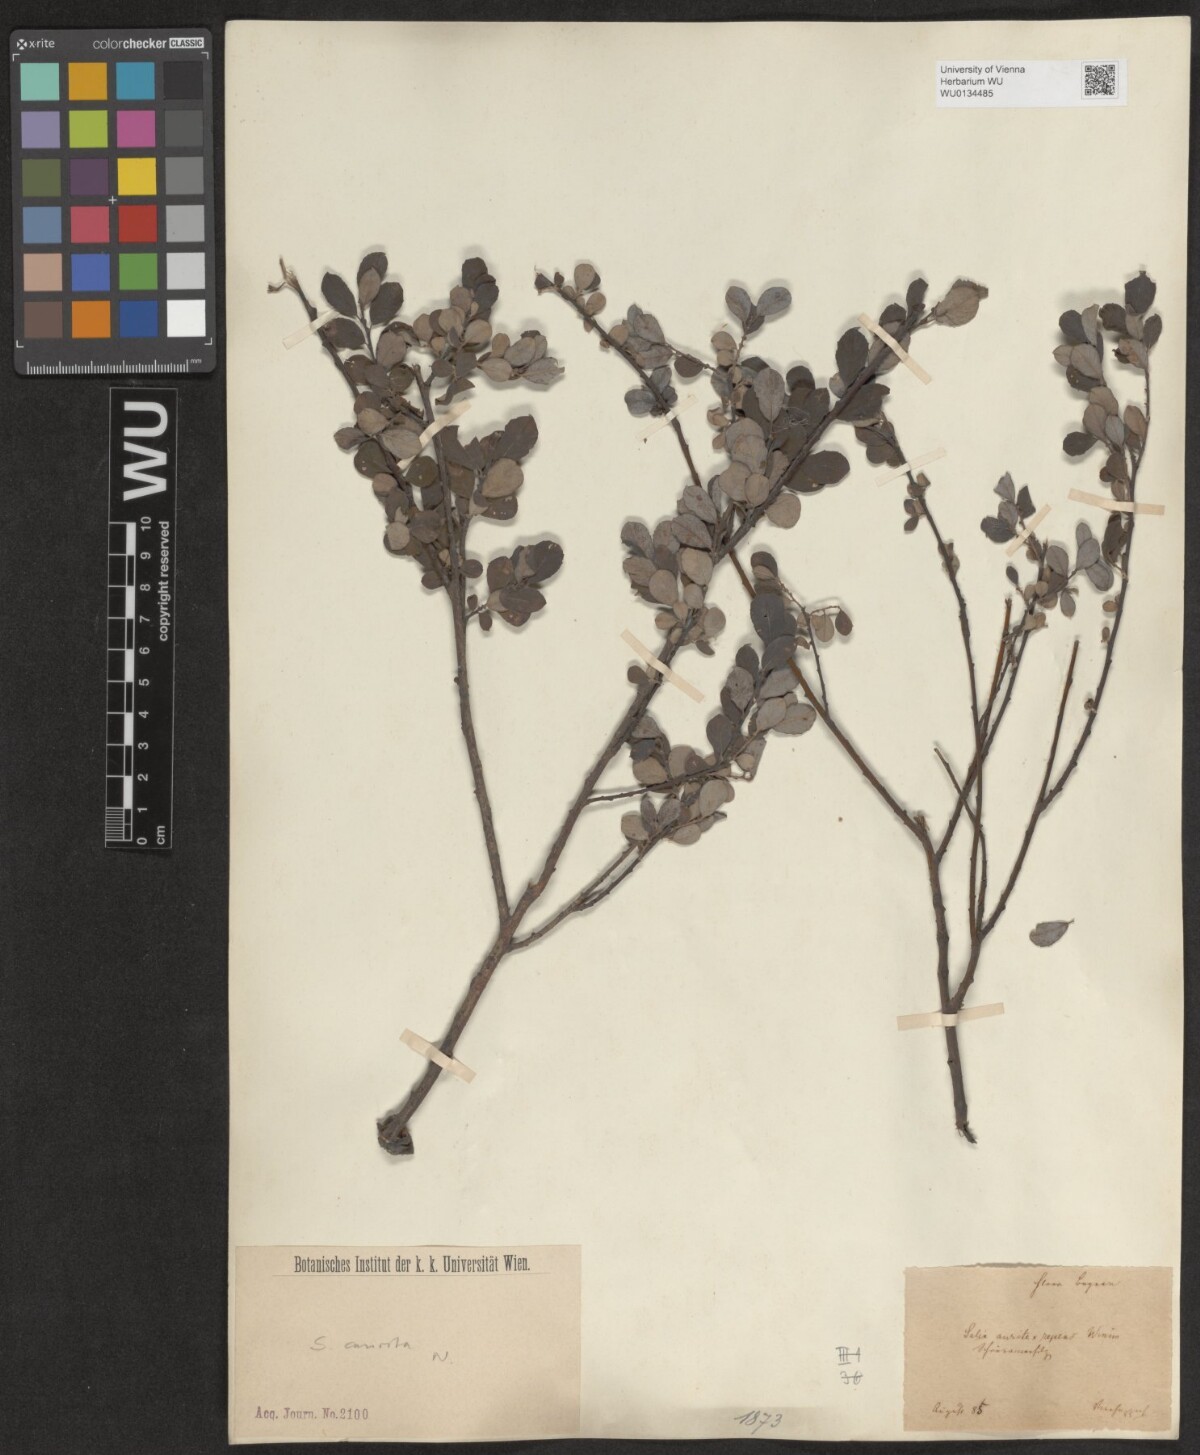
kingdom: Plantae
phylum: Tracheophyta
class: Magnoliopsida
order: Malpighiales
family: Salicaceae
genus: Salix
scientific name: Salix aurita
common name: Eared willow
